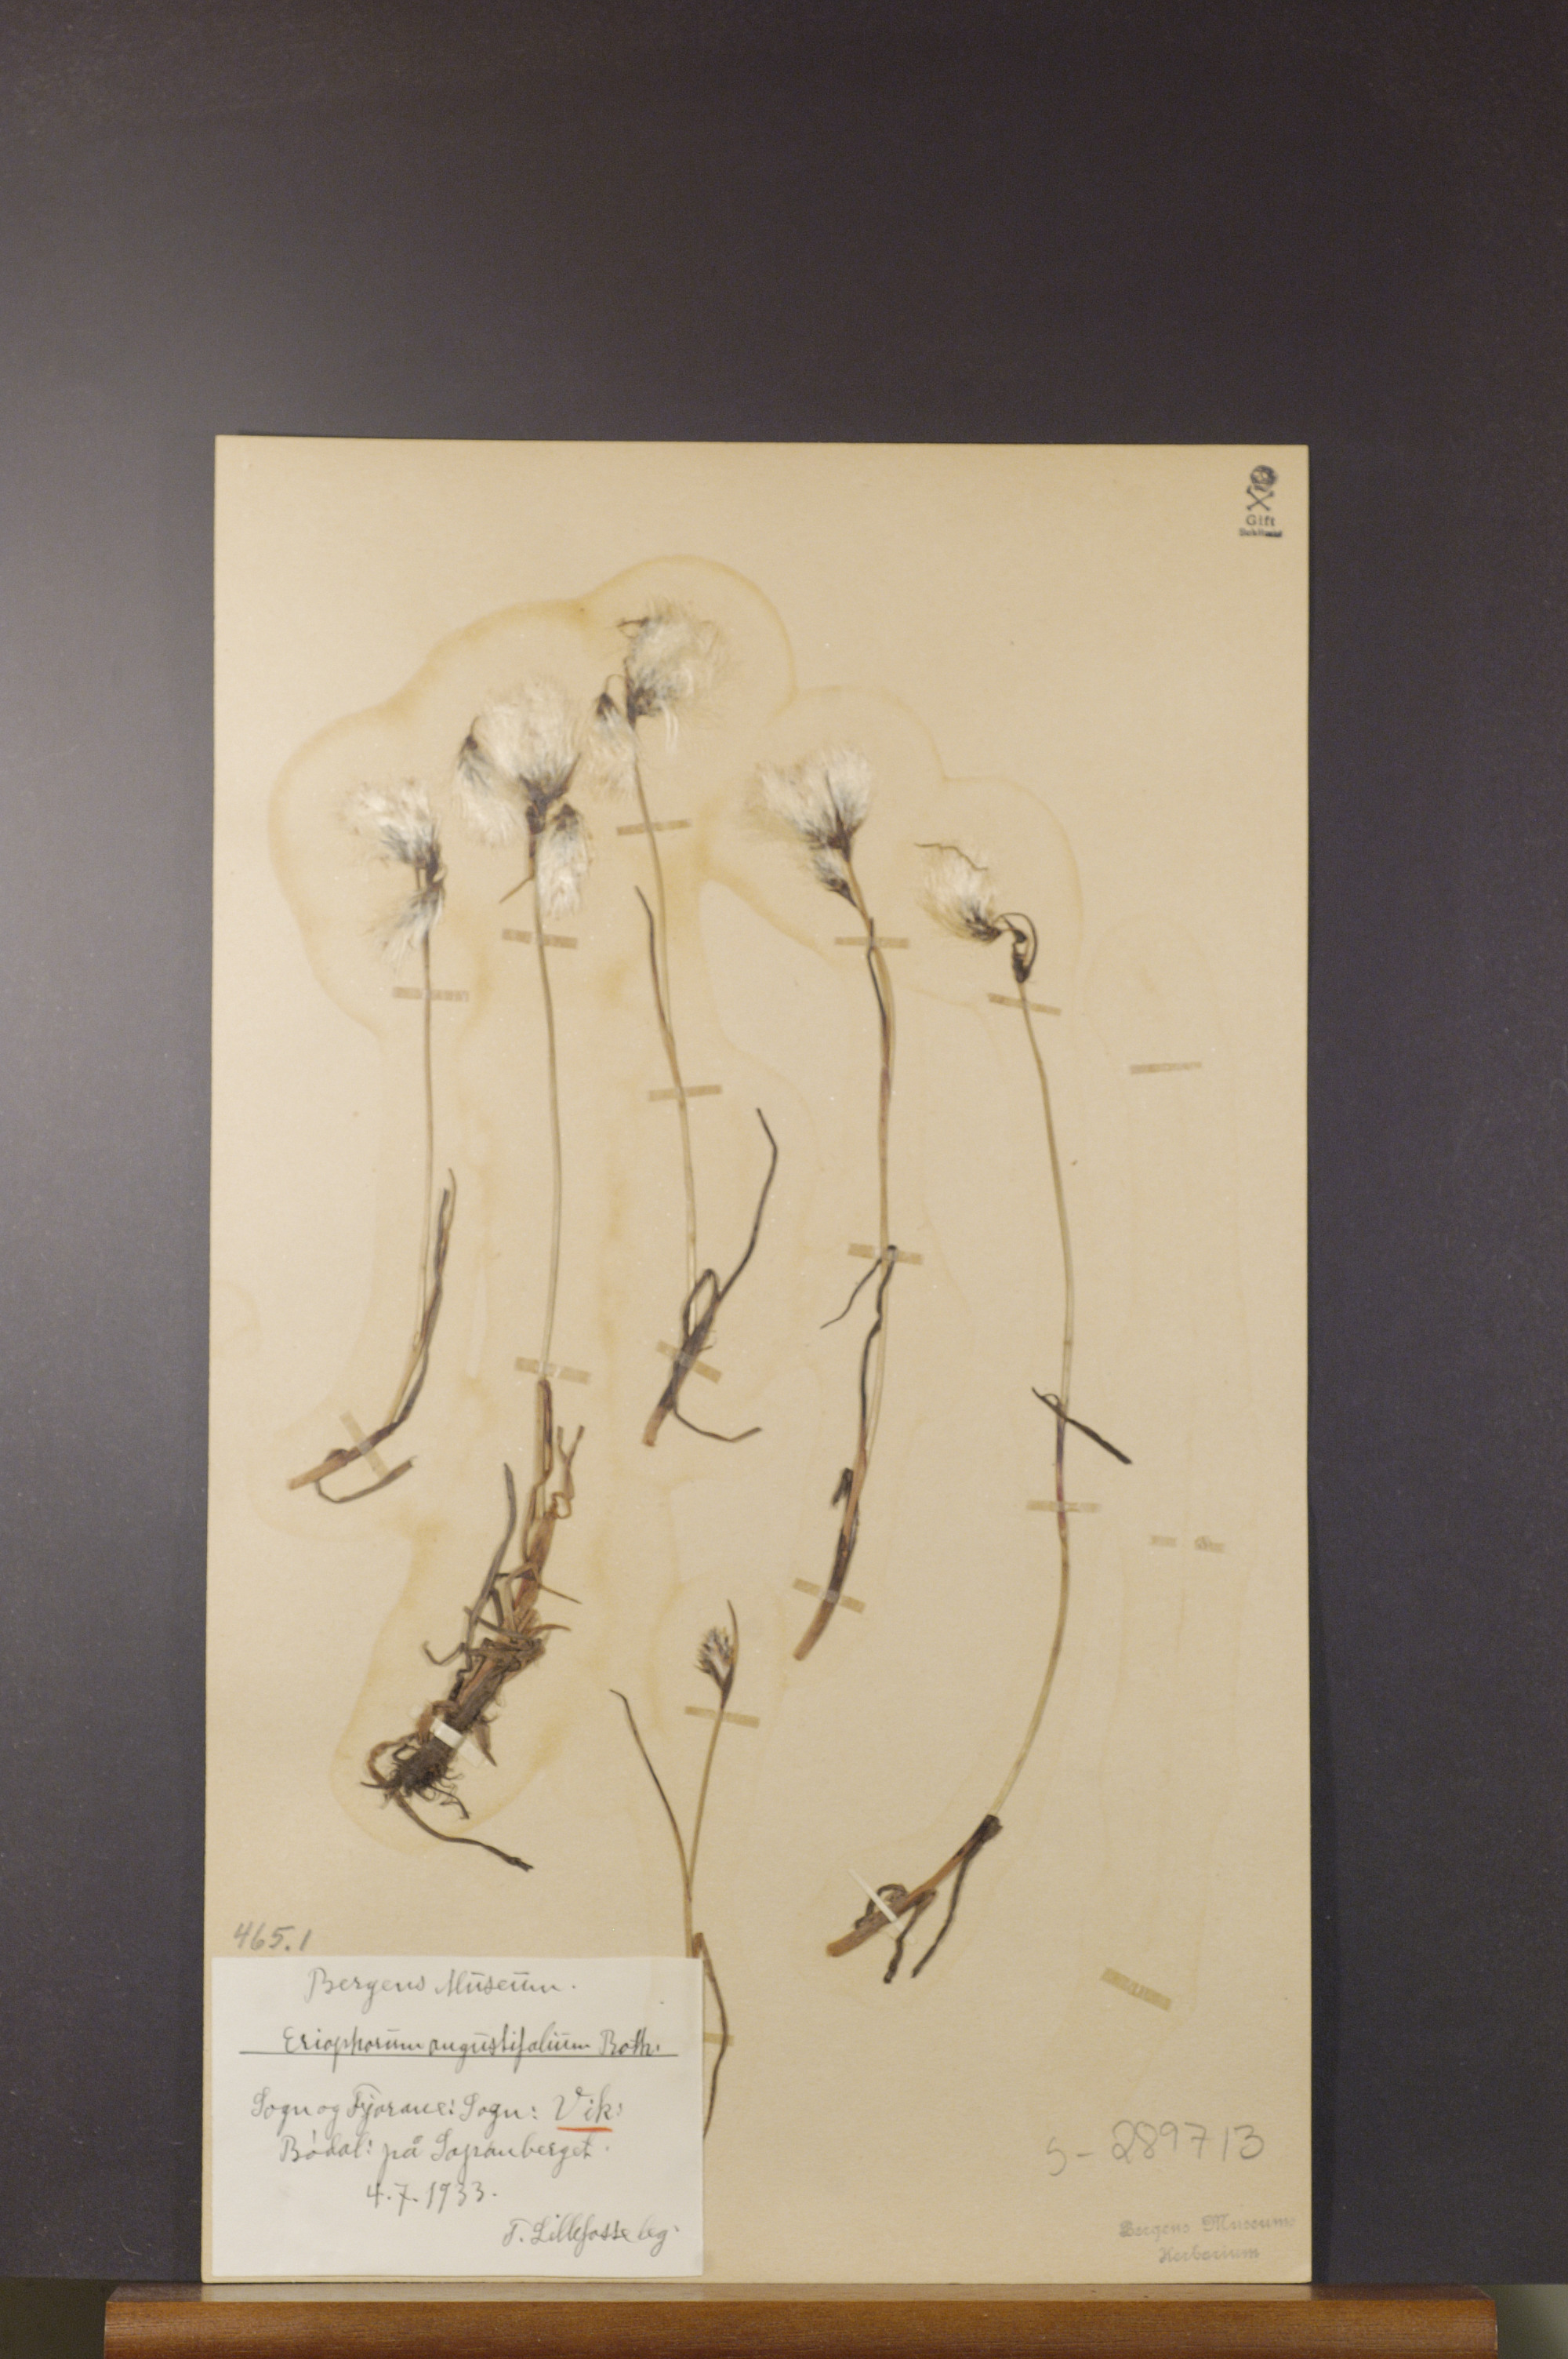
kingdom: Plantae
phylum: Tracheophyta
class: Liliopsida
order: Poales
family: Cyperaceae
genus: Eriophorum
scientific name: Eriophorum angustifolium
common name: Common cottongrass
